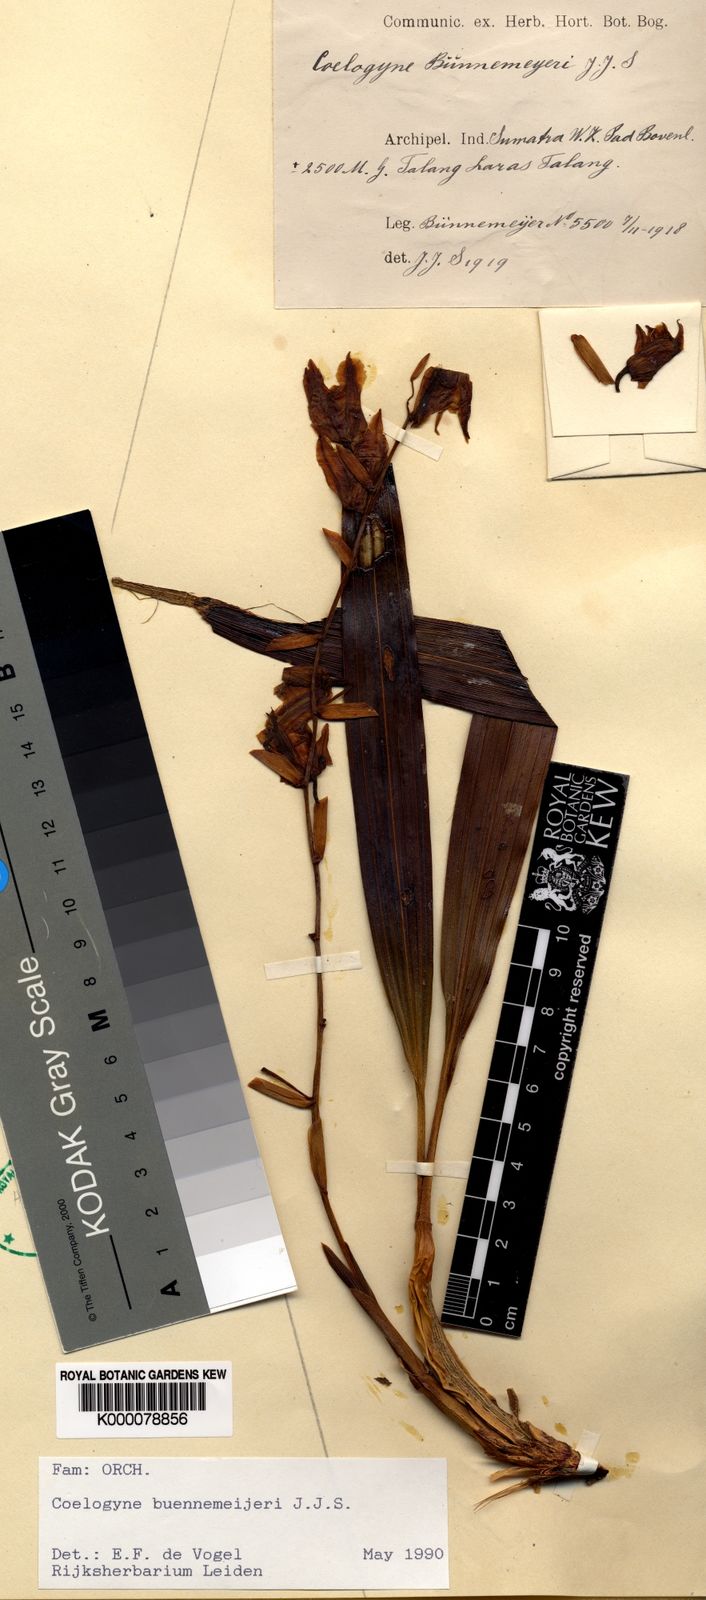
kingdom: Plantae
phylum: Tracheophyta
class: Liliopsida
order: Asparagales
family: Orchidaceae
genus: Coelogyne
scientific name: Coelogyne buennemeyeri
